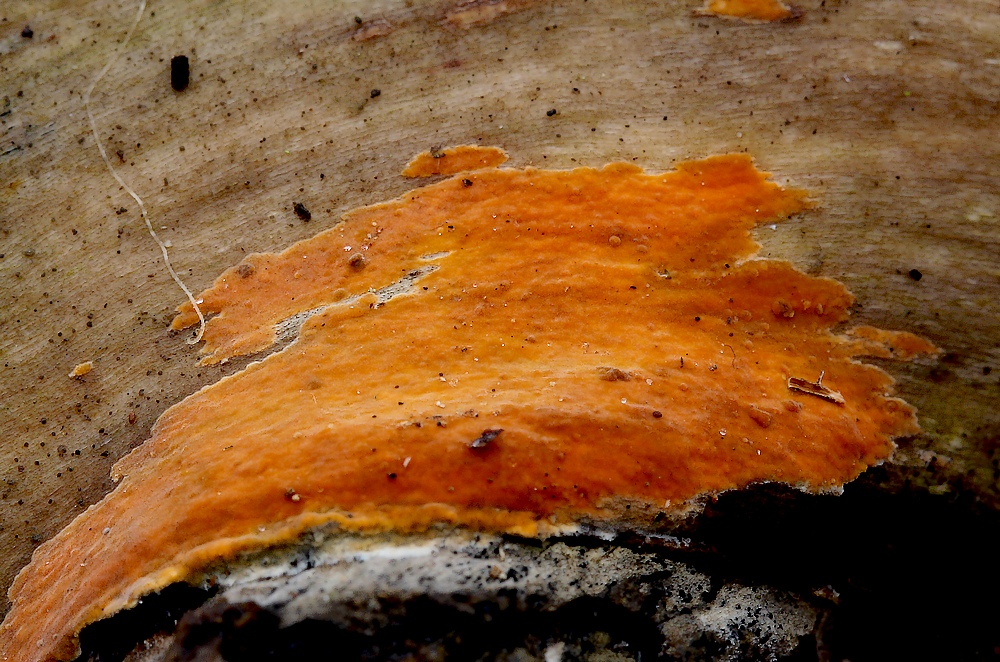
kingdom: Fungi
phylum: Basidiomycota
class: Agaricomycetes
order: Russulales
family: Peniophoraceae
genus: Peniophora
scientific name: Peniophora incarnata
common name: laksefarvet voksskind
